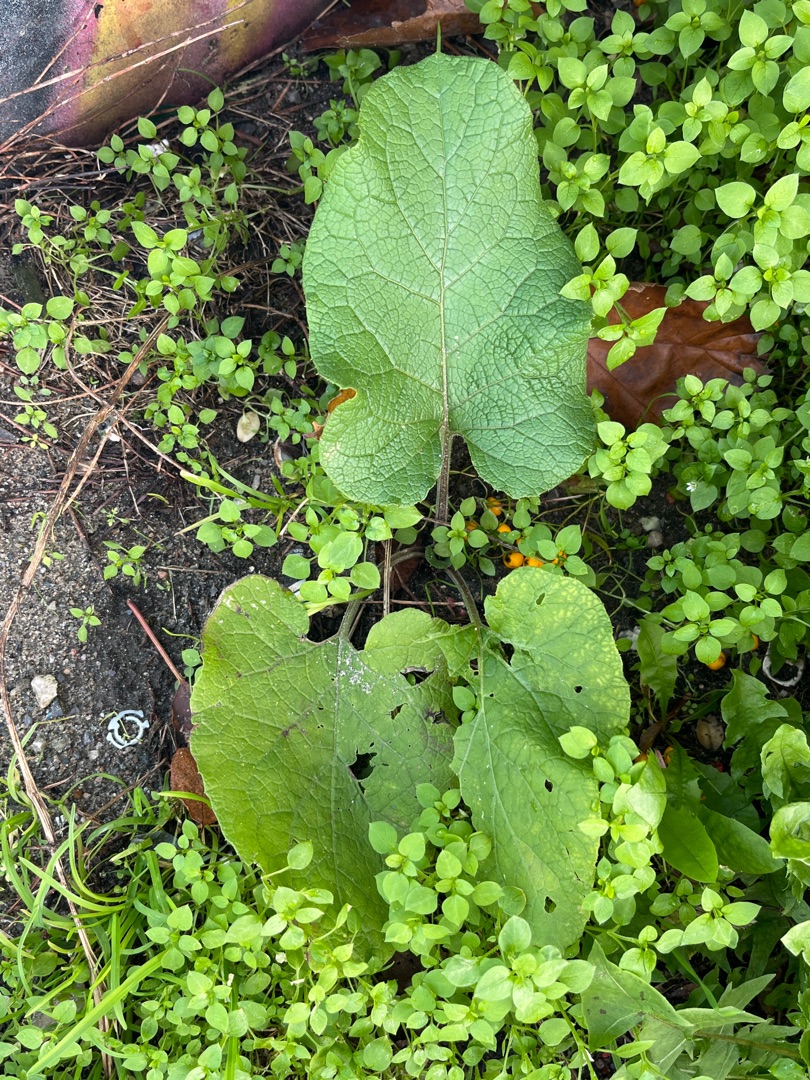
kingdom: Plantae
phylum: Tracheophyta
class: Magnoliopsida
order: Asterales
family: Asteraceae
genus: Arctium
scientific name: Arctium
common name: Burreslægten
